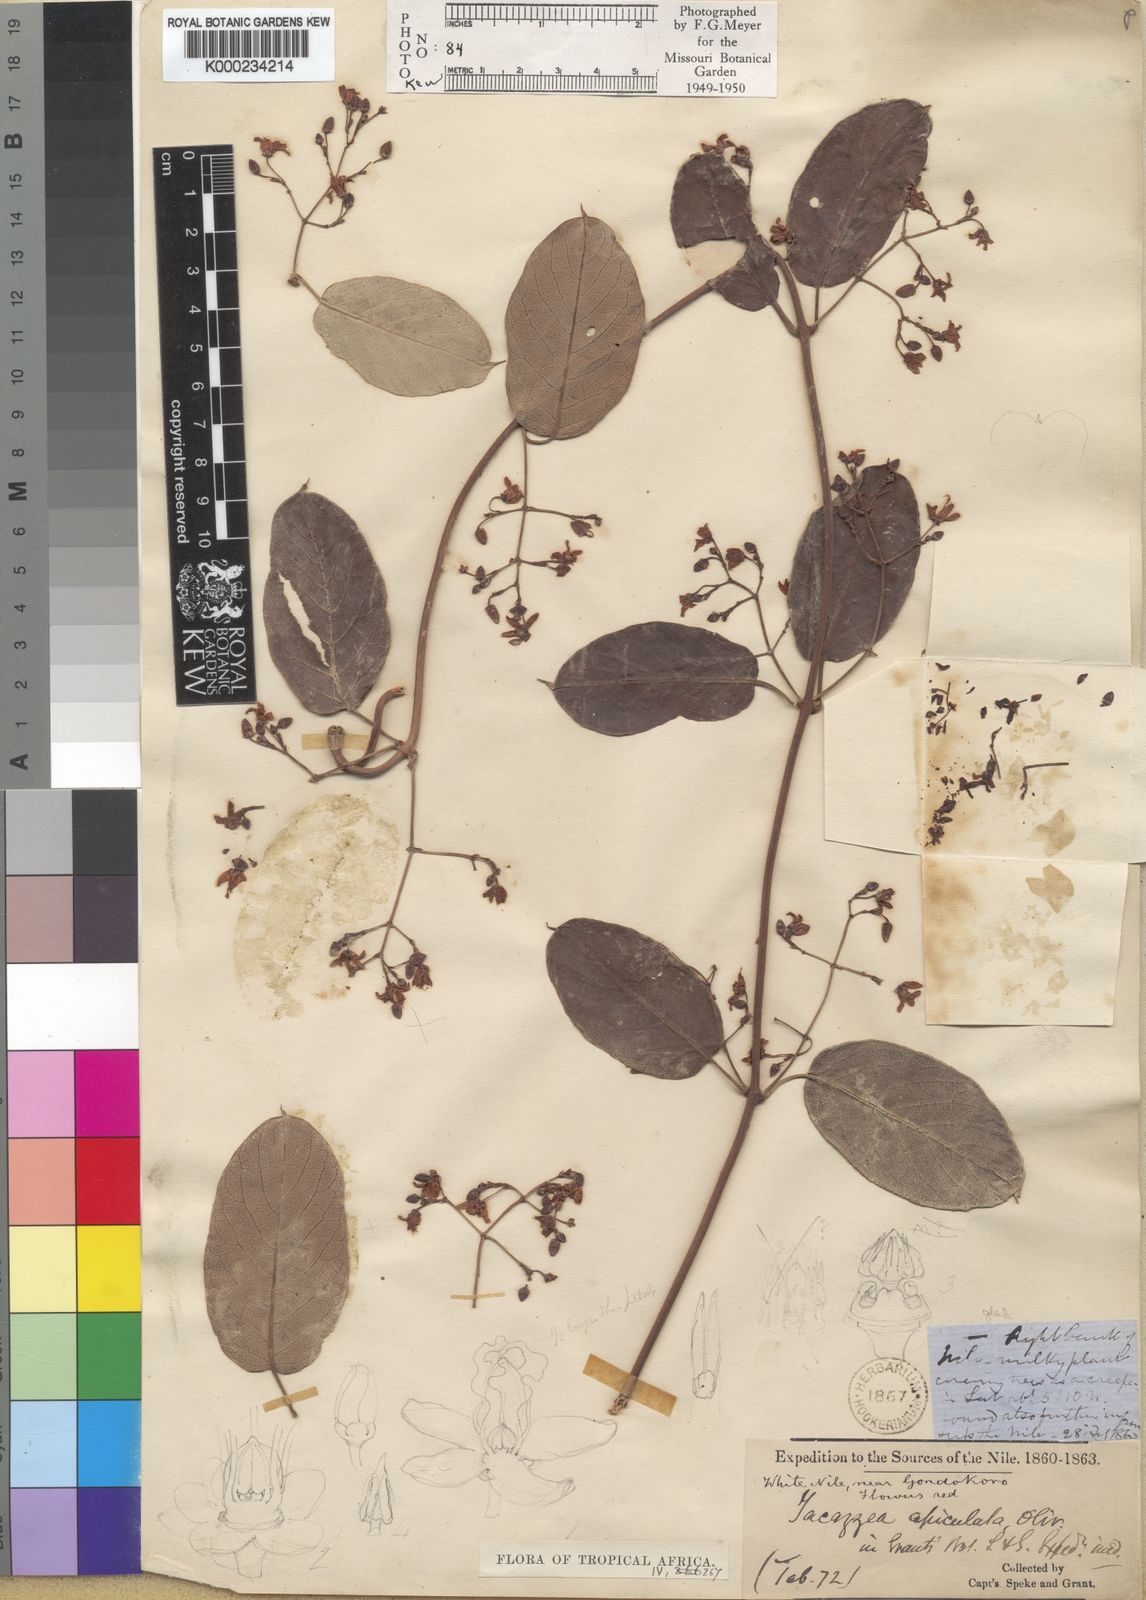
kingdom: Plantae
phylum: Tracheophyta
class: Magnoliopsida
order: Gentianales
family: Apocynaceae
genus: Tacazzea
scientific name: Tacazzea apiculata
